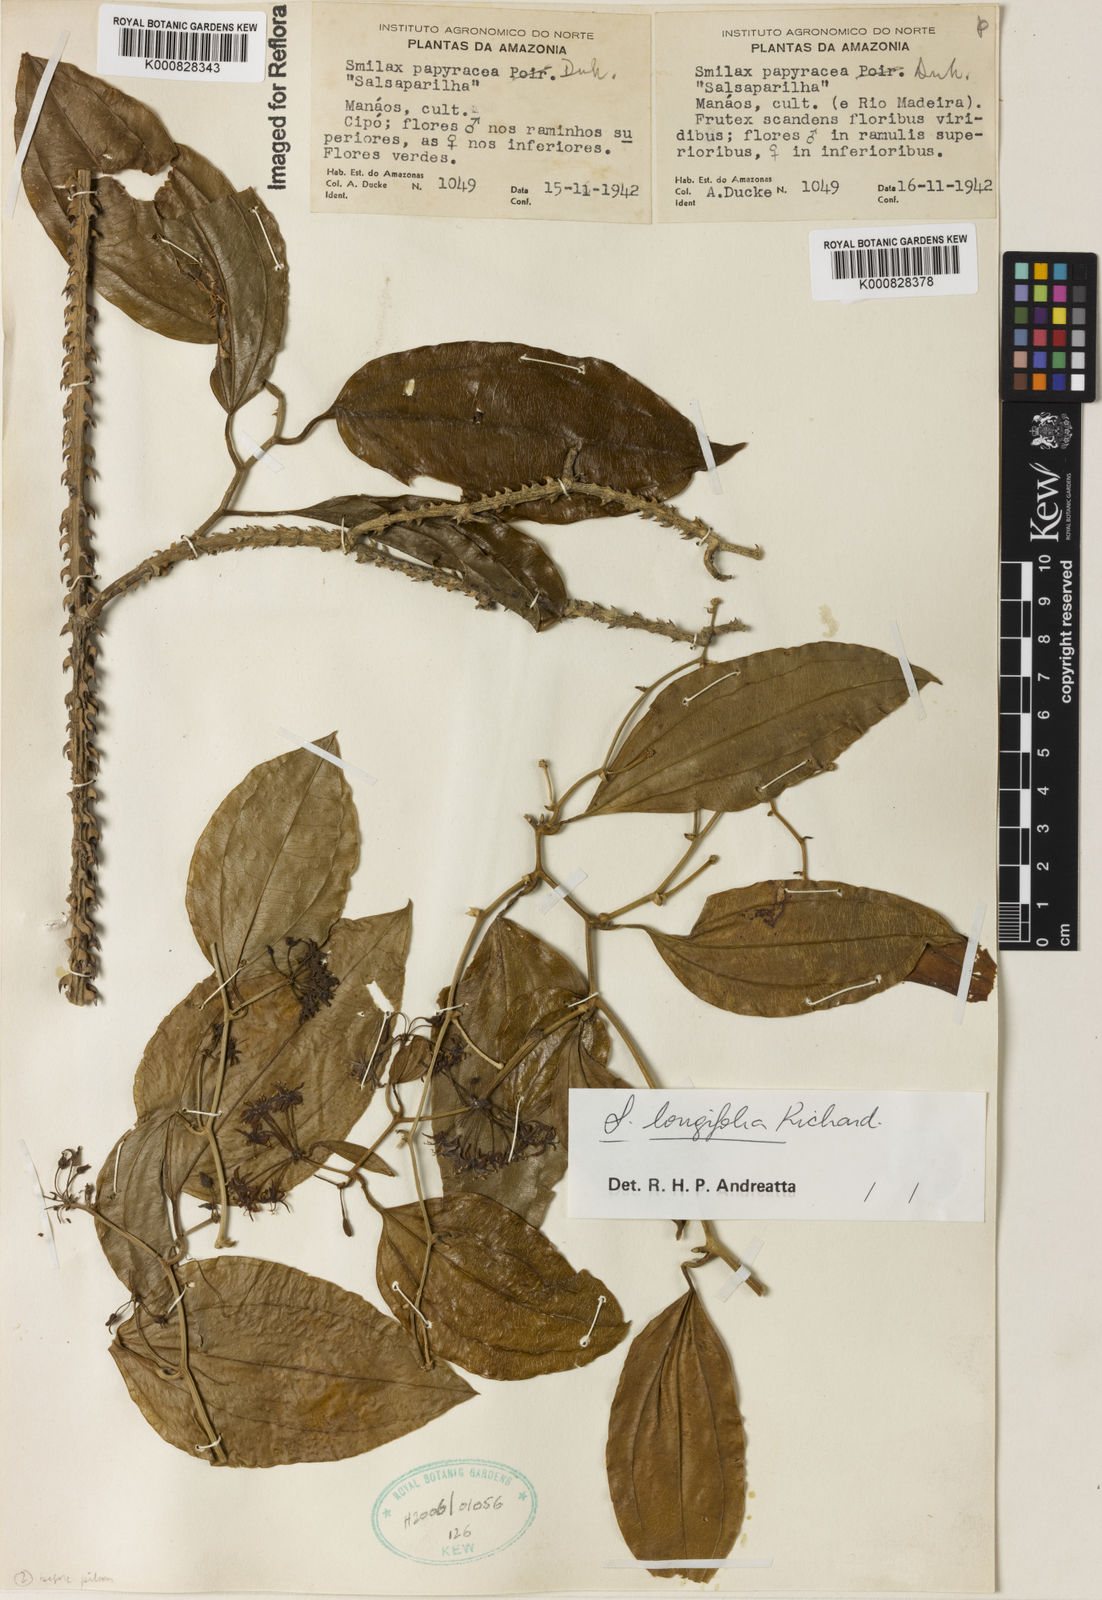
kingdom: Plantae
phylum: Tracheophyta
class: Liliopsida
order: Liliales
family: Smilacaceae
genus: Smilax
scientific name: Smilax longifolia
